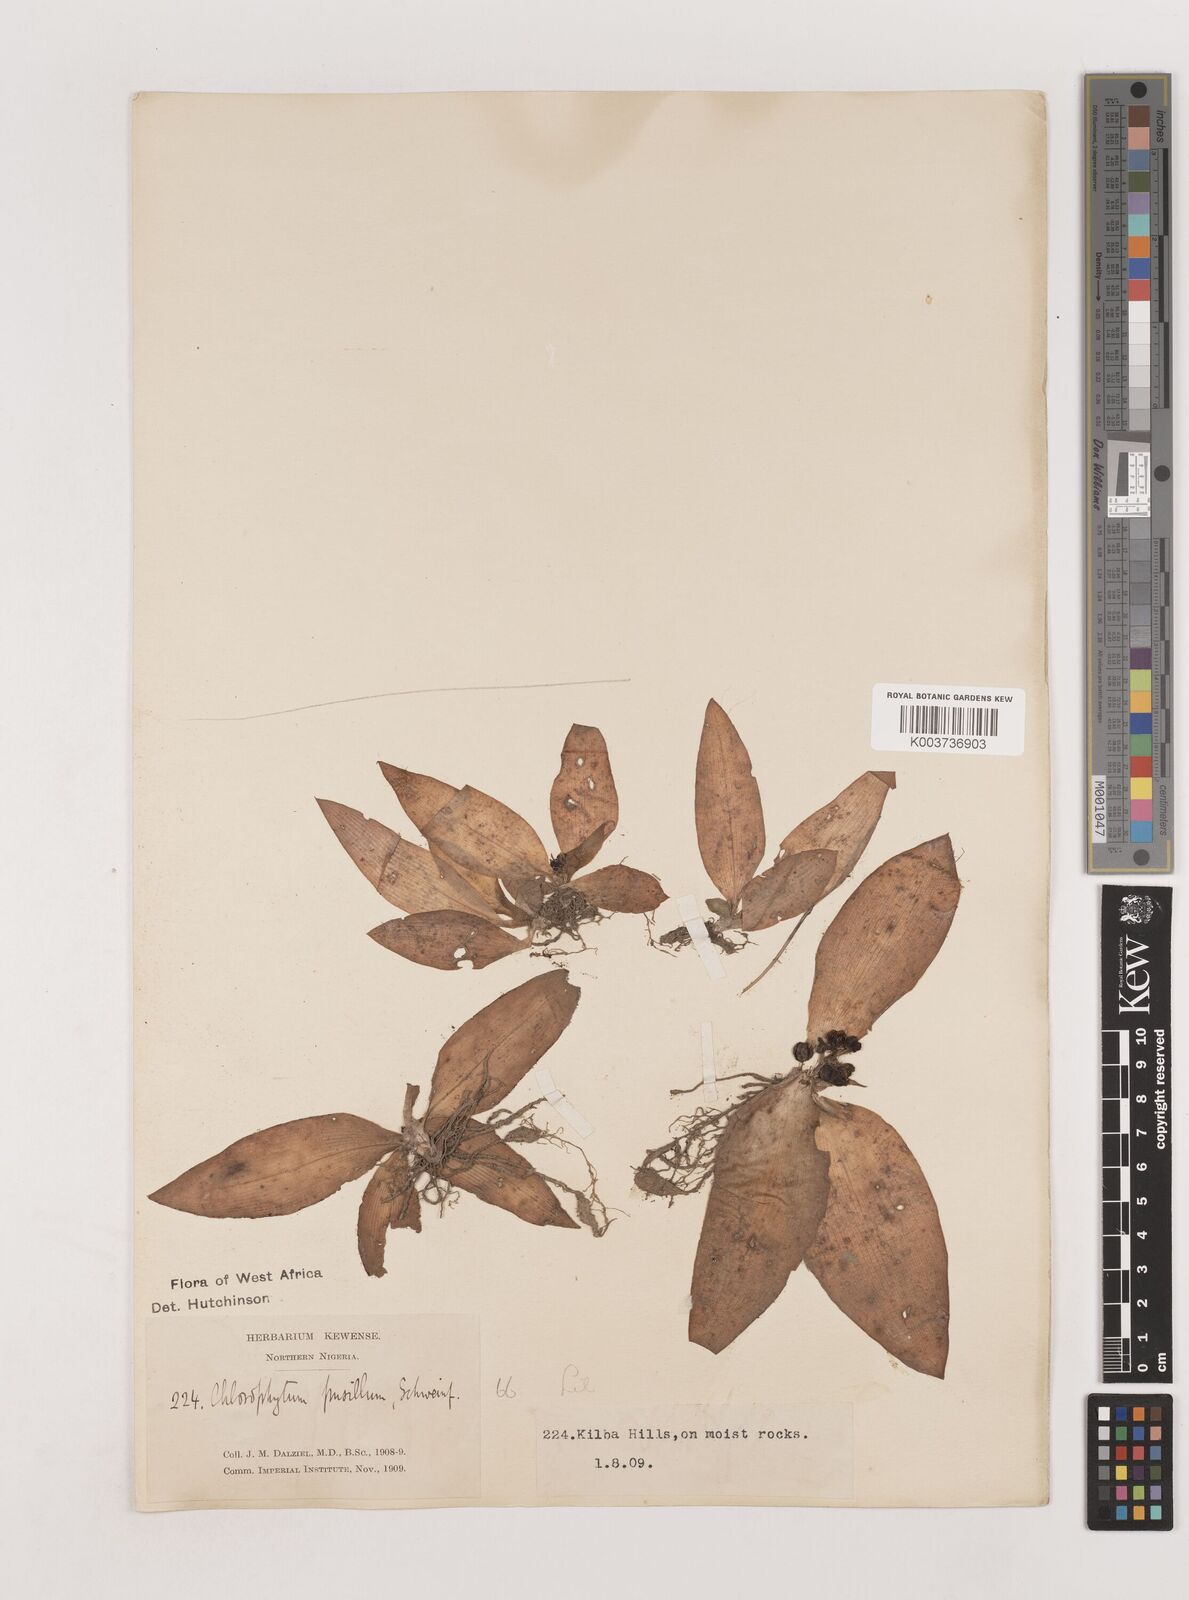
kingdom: Plantae
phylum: Tracheophyta
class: Liliopsida
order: Asparagales
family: Asparagaceae
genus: Chlorophytum
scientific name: Chlorophytum pusillum
